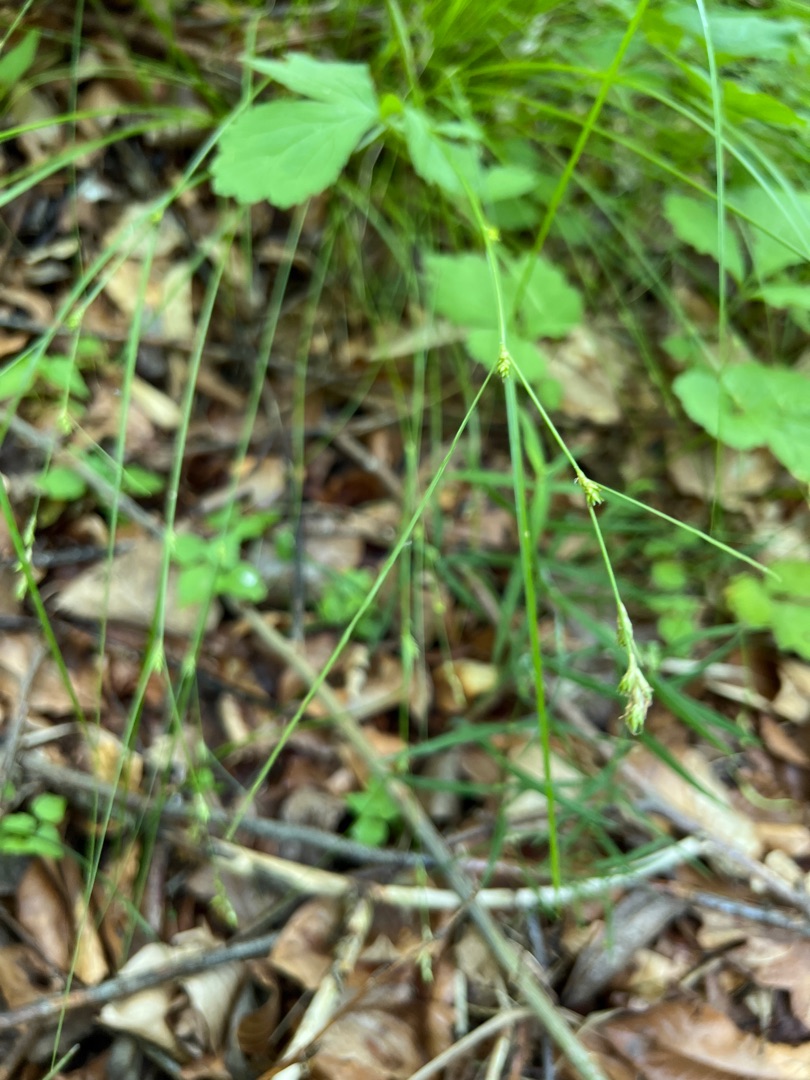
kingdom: Plantae
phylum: Tracheophyta
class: Liliopsida
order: Poales
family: Cyperaceae
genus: Carex
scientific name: Carex remota
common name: Akselblomstret star
